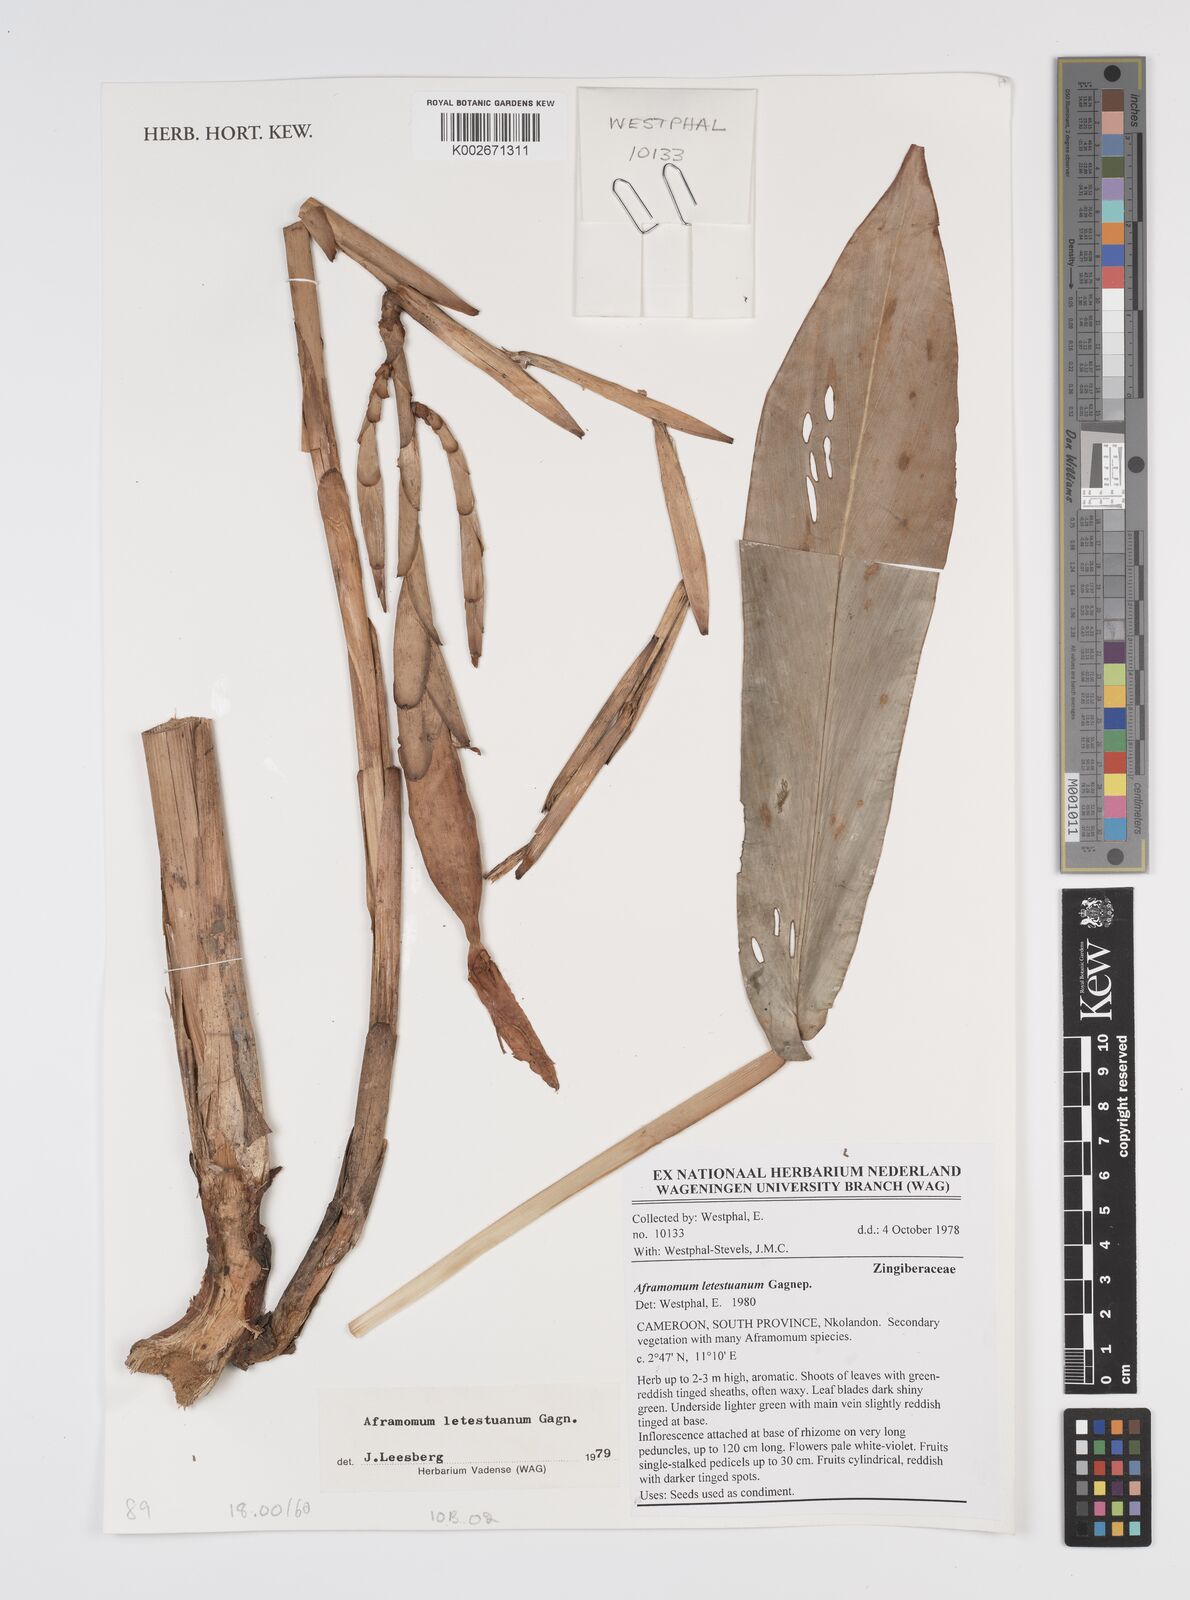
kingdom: Plantae
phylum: Tracheophyta
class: Liliopsida
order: Zingiberales
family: Zingiberaceae
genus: Aframomum
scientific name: Aframomum letestuanum
